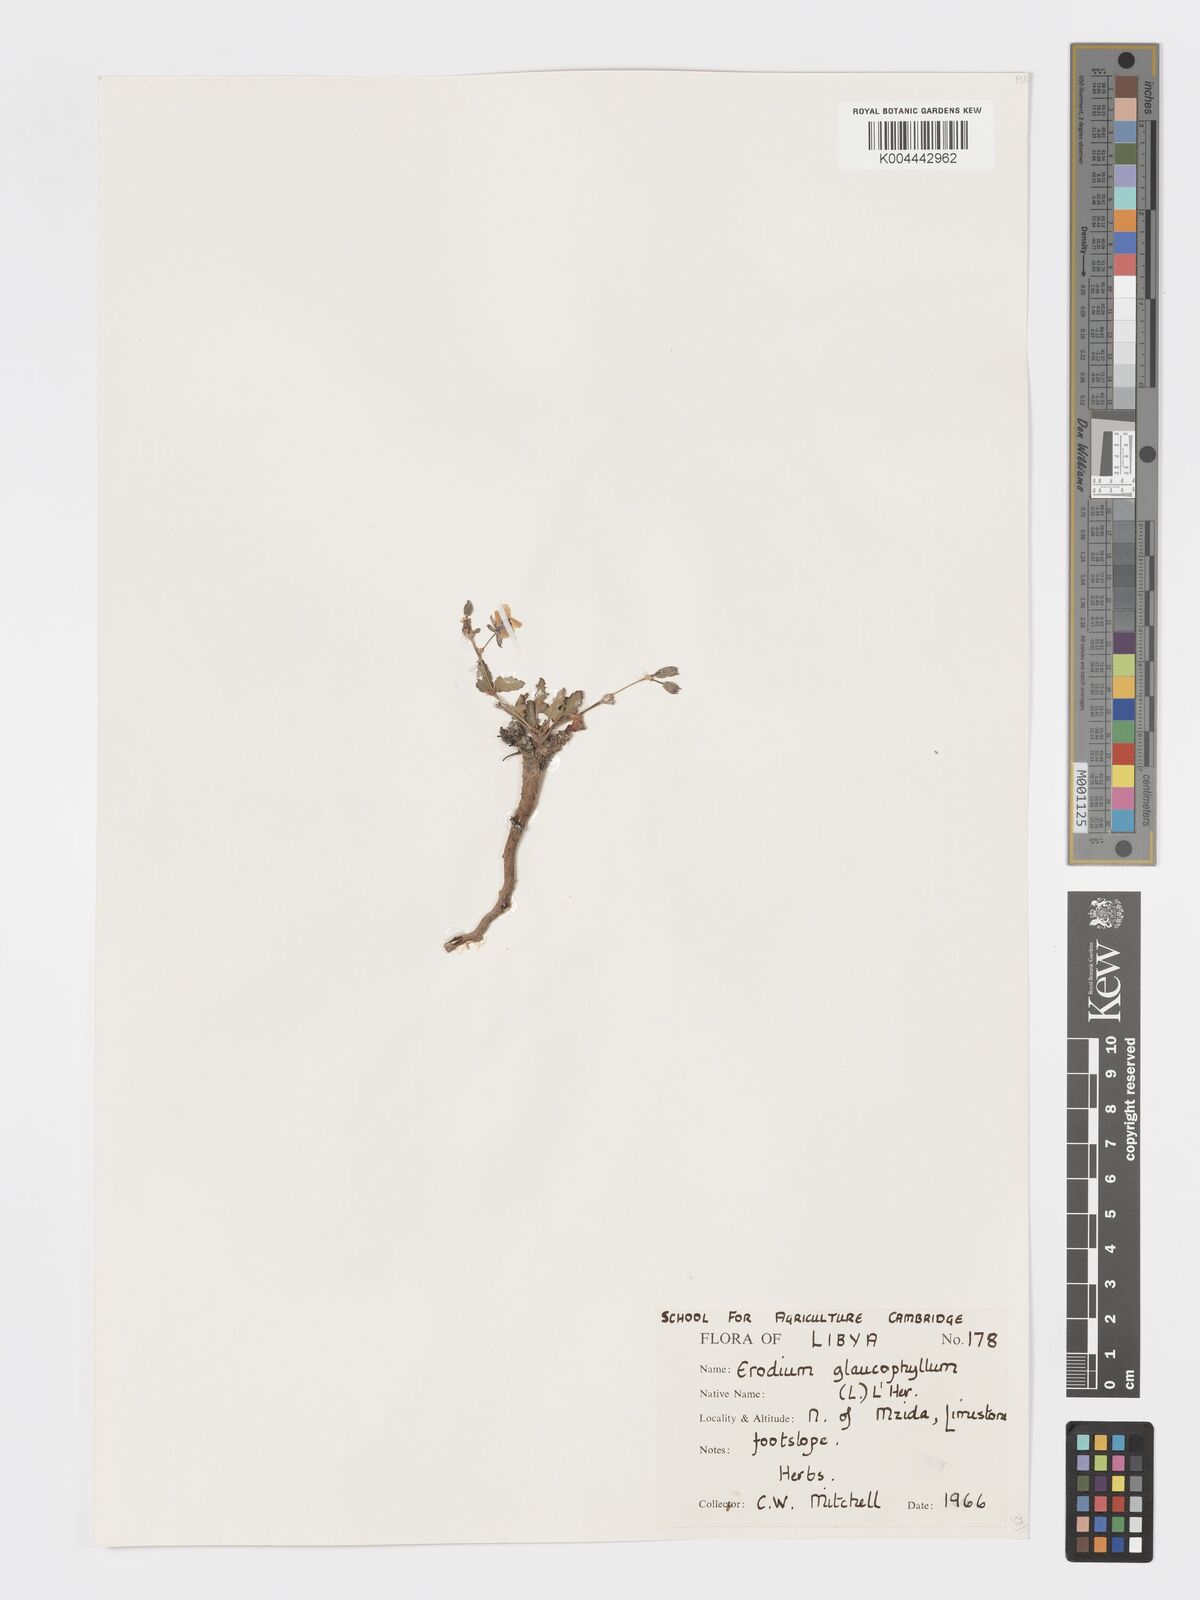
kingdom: Plantae
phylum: Tracheophyta
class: Magnoliopsida
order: Geraniales
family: Geraniaceae
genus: Erodium
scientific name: Erodium glaucophyllum
